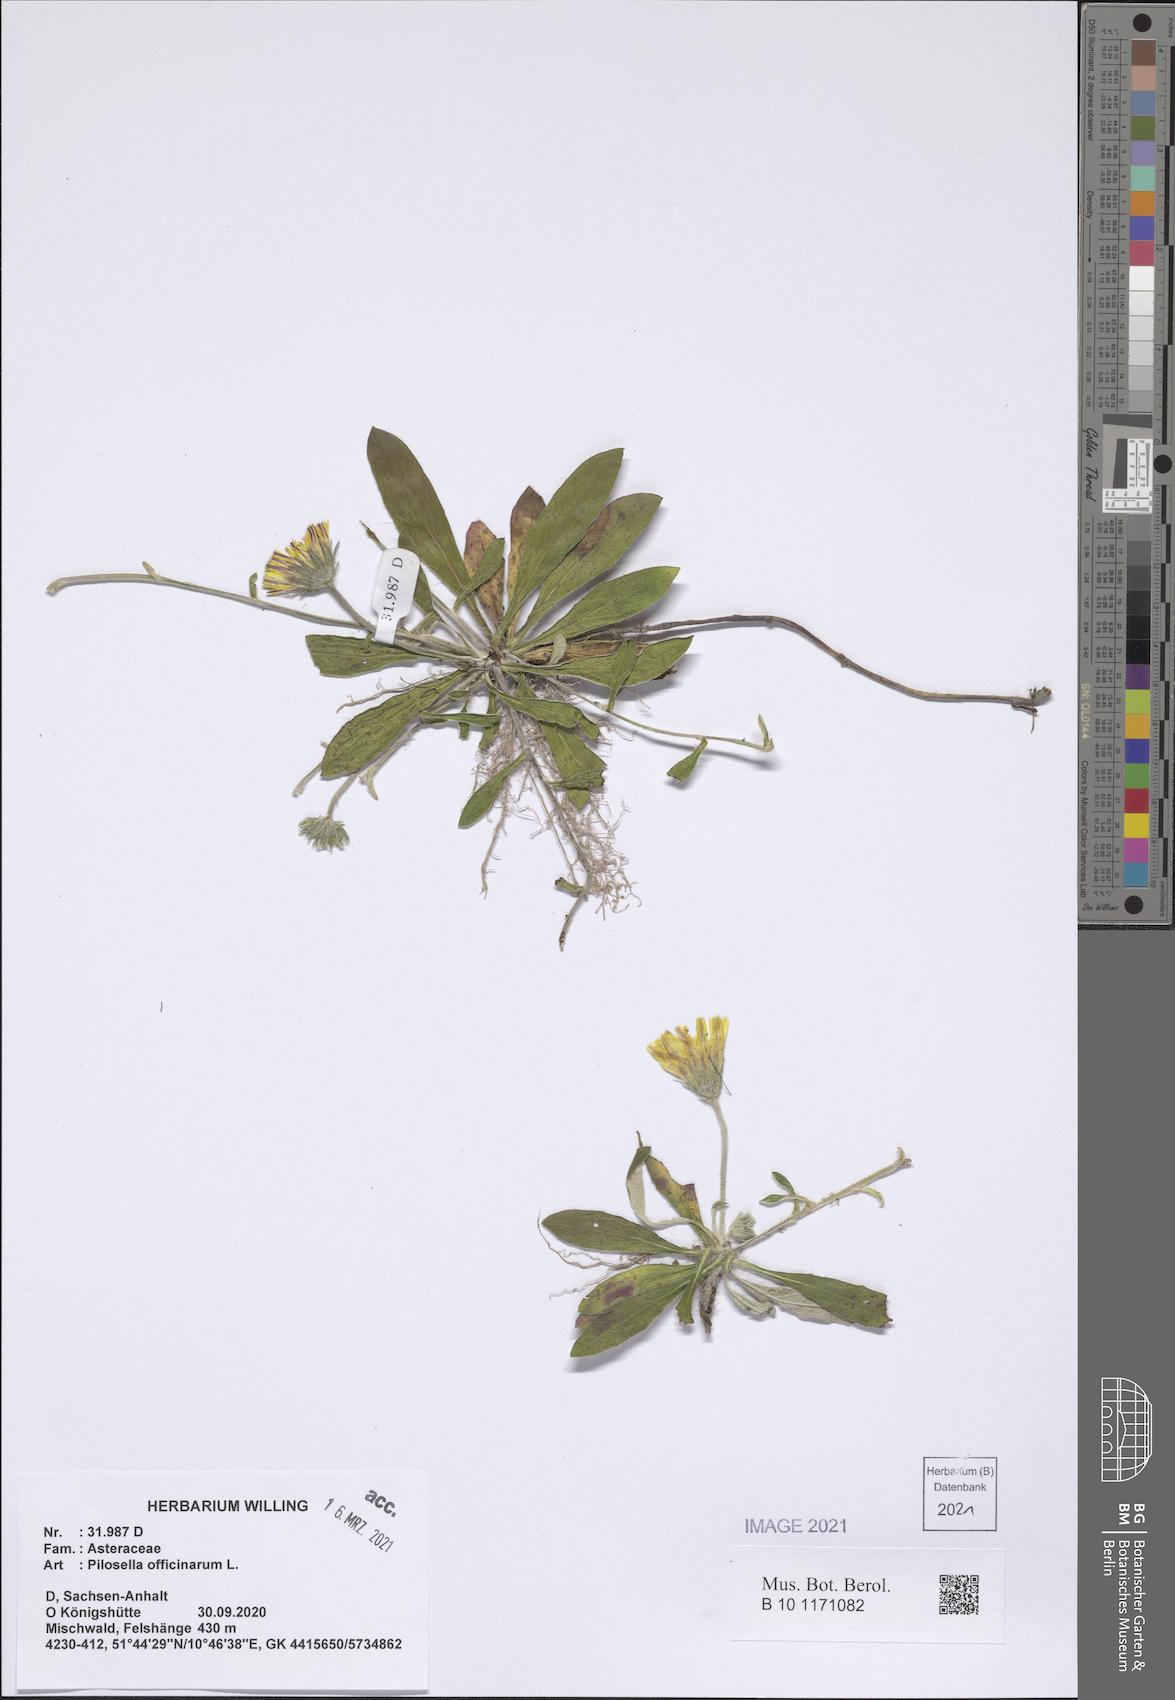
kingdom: Plantae
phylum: Tracheophyta
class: Magnoliopsida
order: Asterales
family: Asteraceae
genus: Pilosella
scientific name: Pilosella officinarum
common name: Mouse-ear hawkweed
